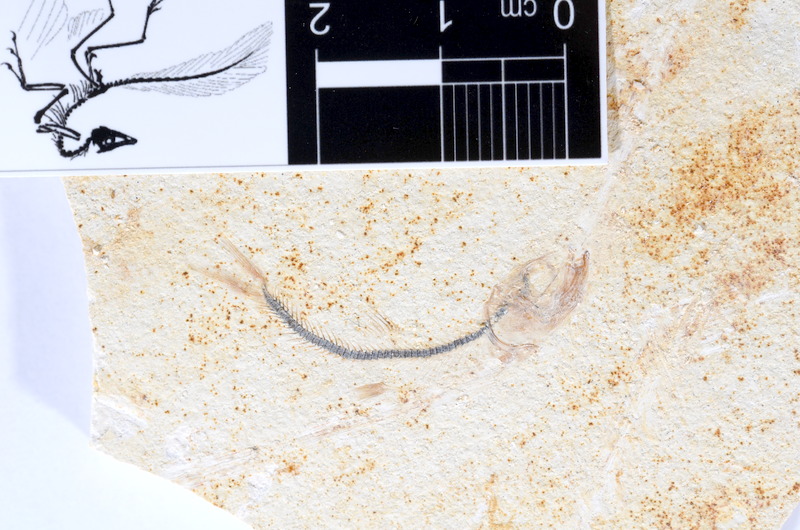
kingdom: Animalia
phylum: Chordata
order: Salmoniformes
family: Orthogonikleithridae
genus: Orthogonikleithrus
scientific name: Orthogonikleithrus hoelli
